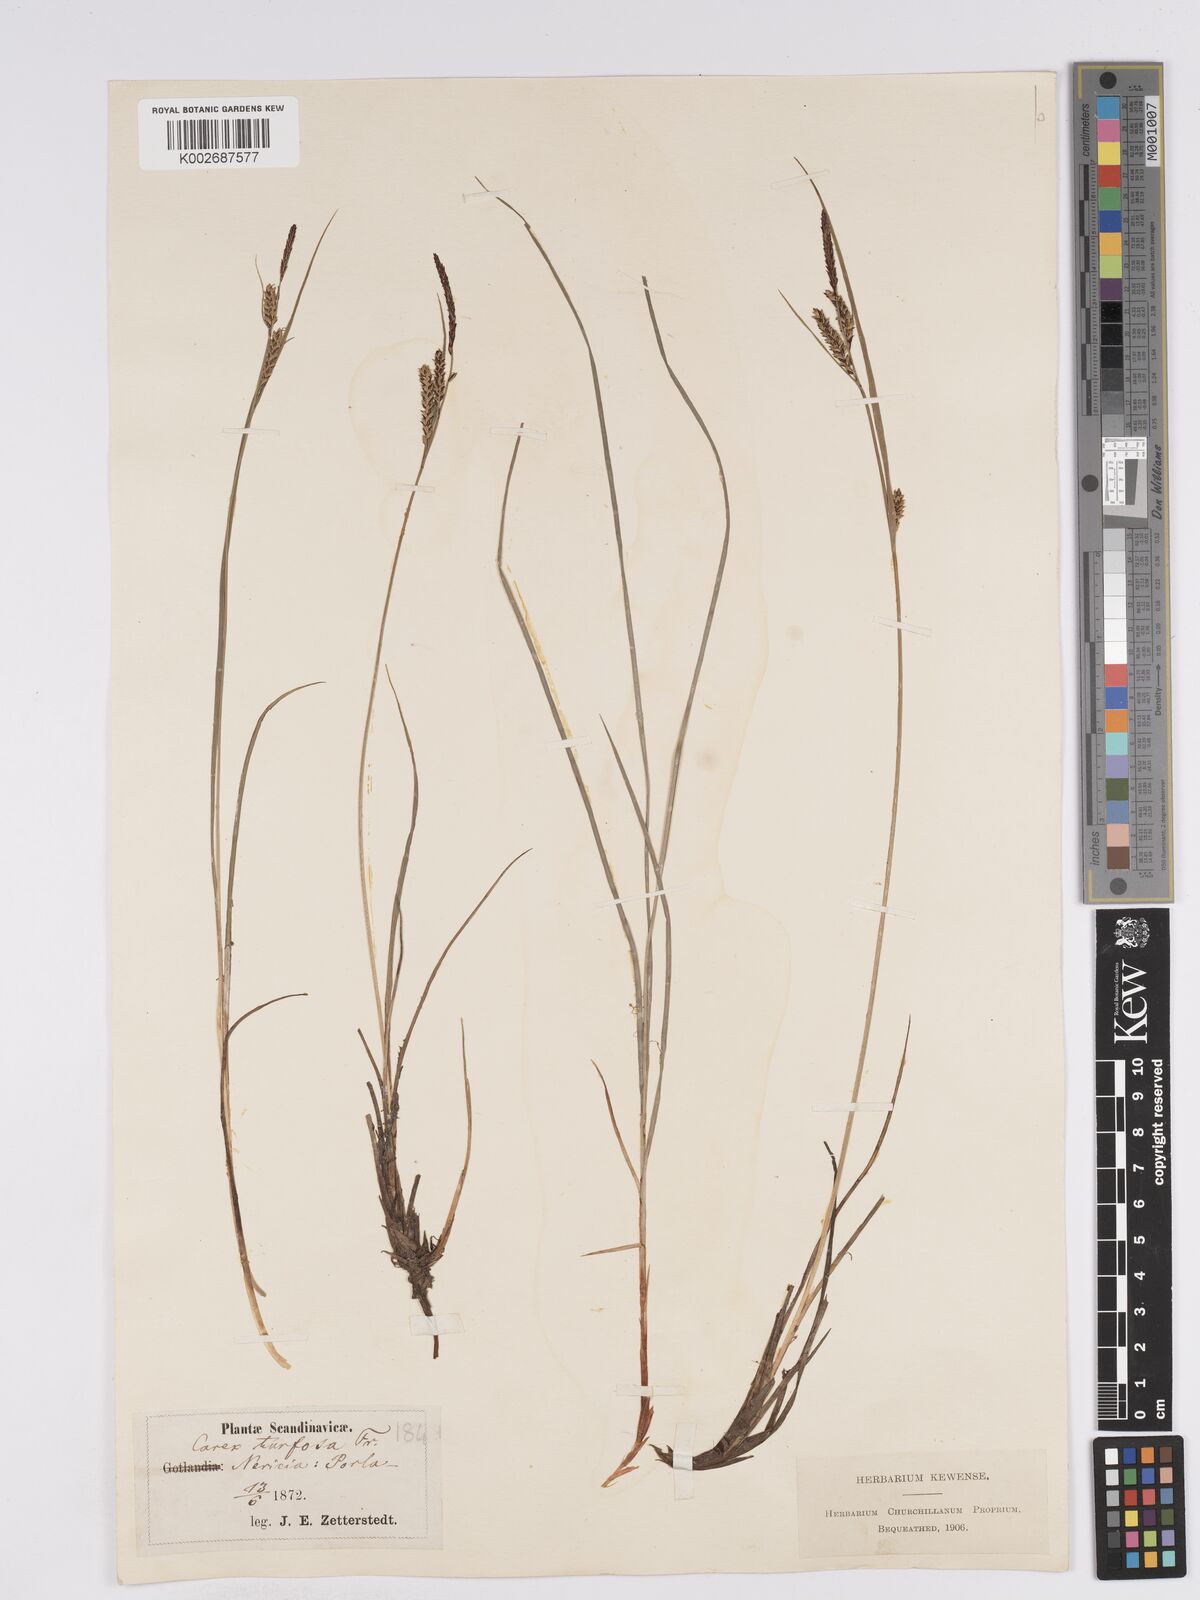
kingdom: Plantae
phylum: Tracheophyta
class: Liliopsida
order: Poales
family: Cyperaceae
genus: Carex
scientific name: Carex nigra
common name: Common sedge
